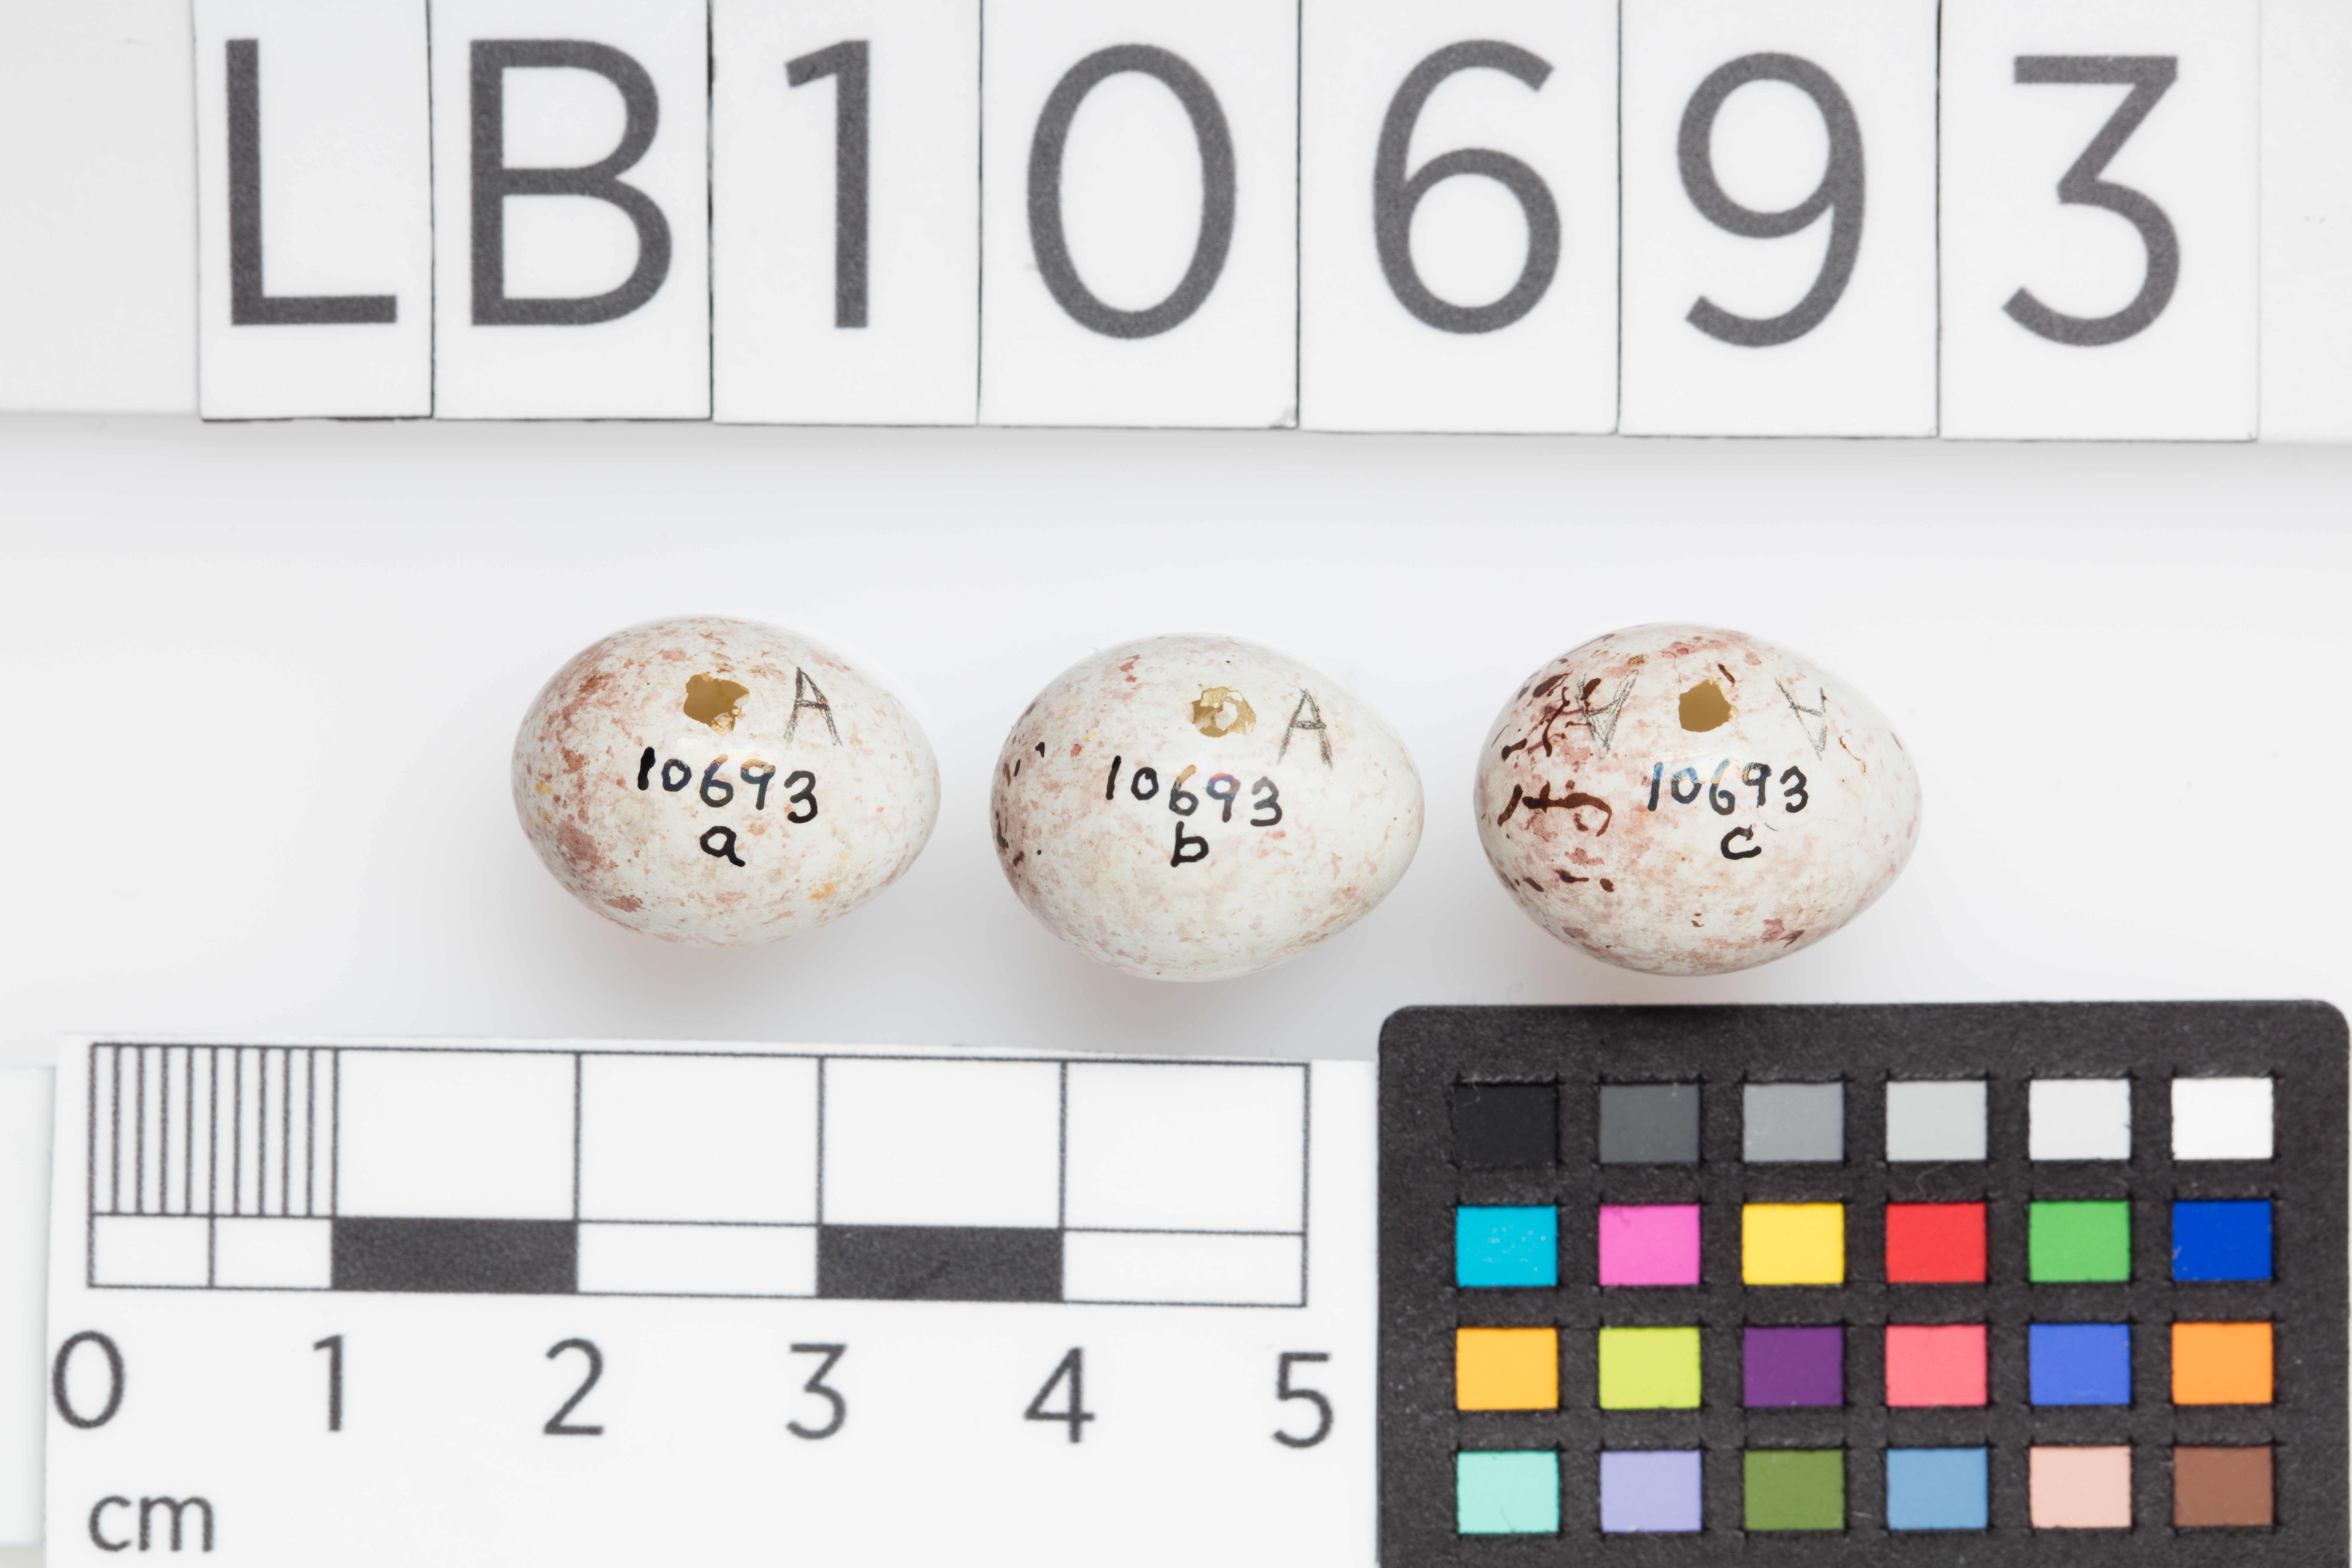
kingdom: Animalia
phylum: Chordata
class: Aves
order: Passeriformes
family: Fringillidae
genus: Carduelis
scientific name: Carduelis carduelis
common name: European goldfinch
